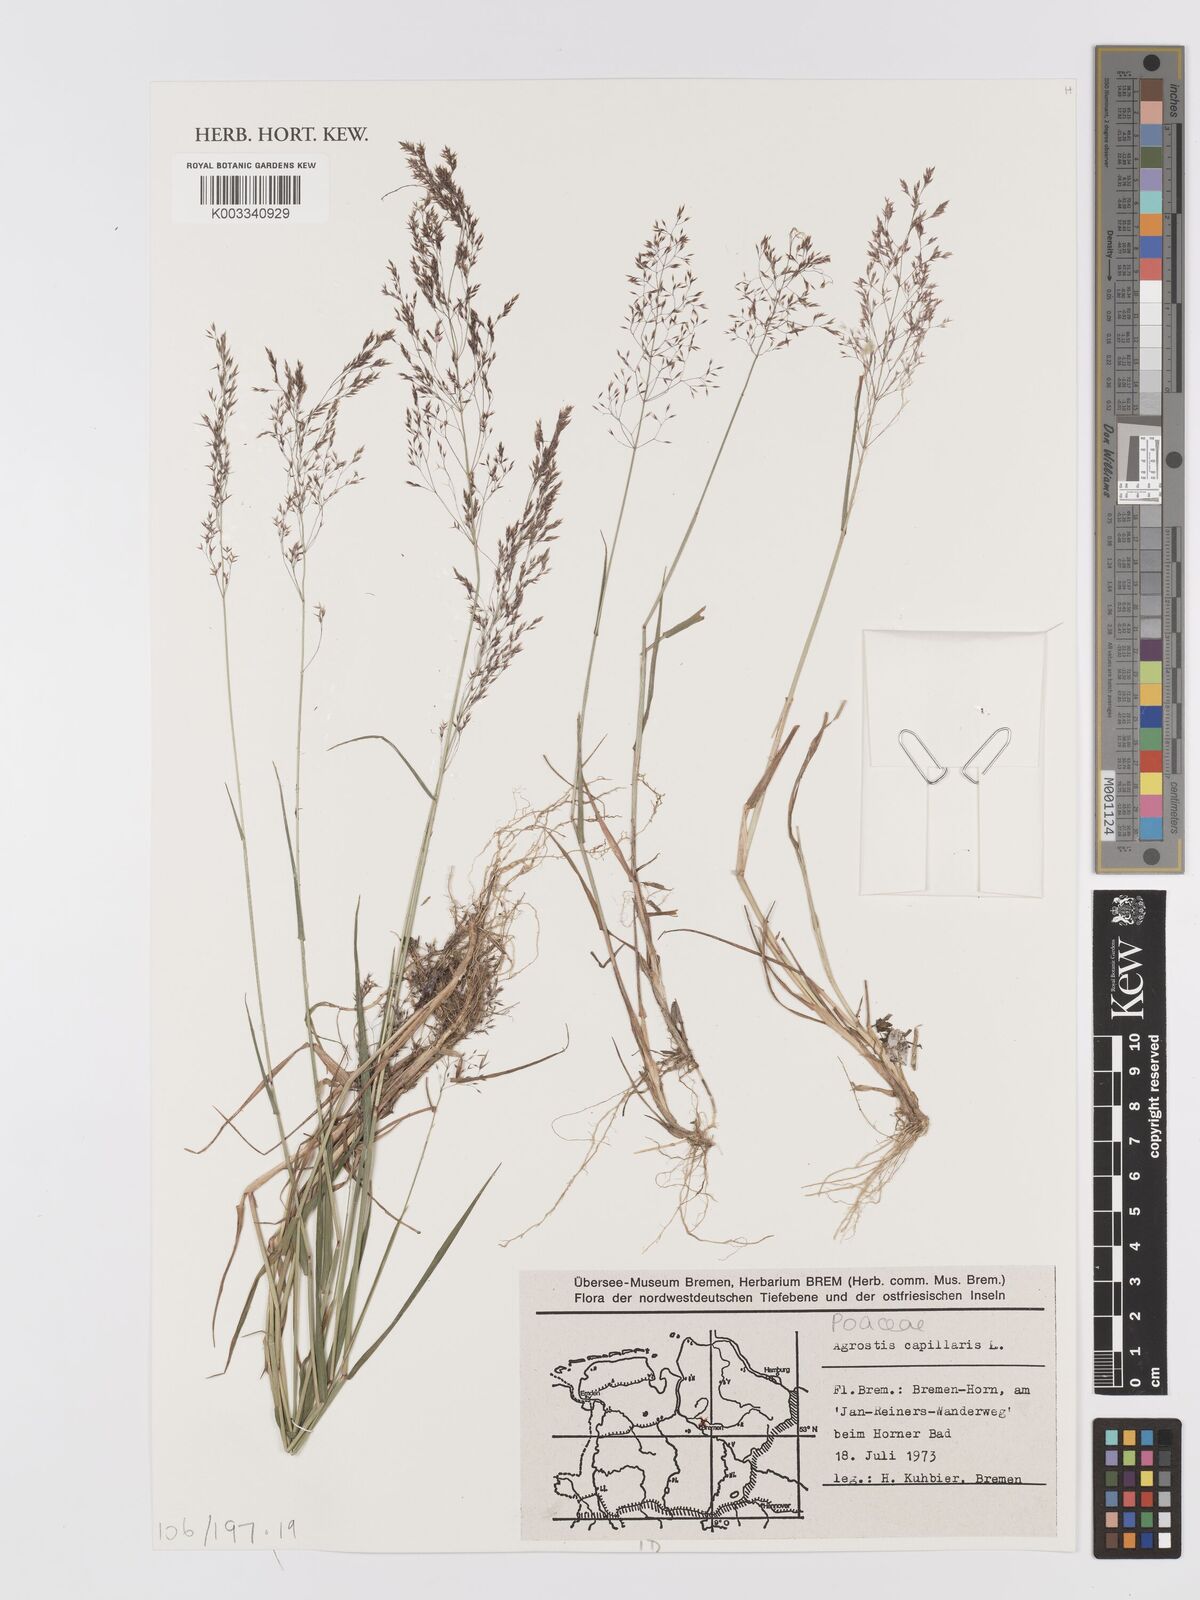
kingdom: Plantae
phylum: Tracheophyta
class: Liliopsida
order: Poales
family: Poaceae
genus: Agrostis
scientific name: Agrostis capillaris
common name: Colonial bentgrass
